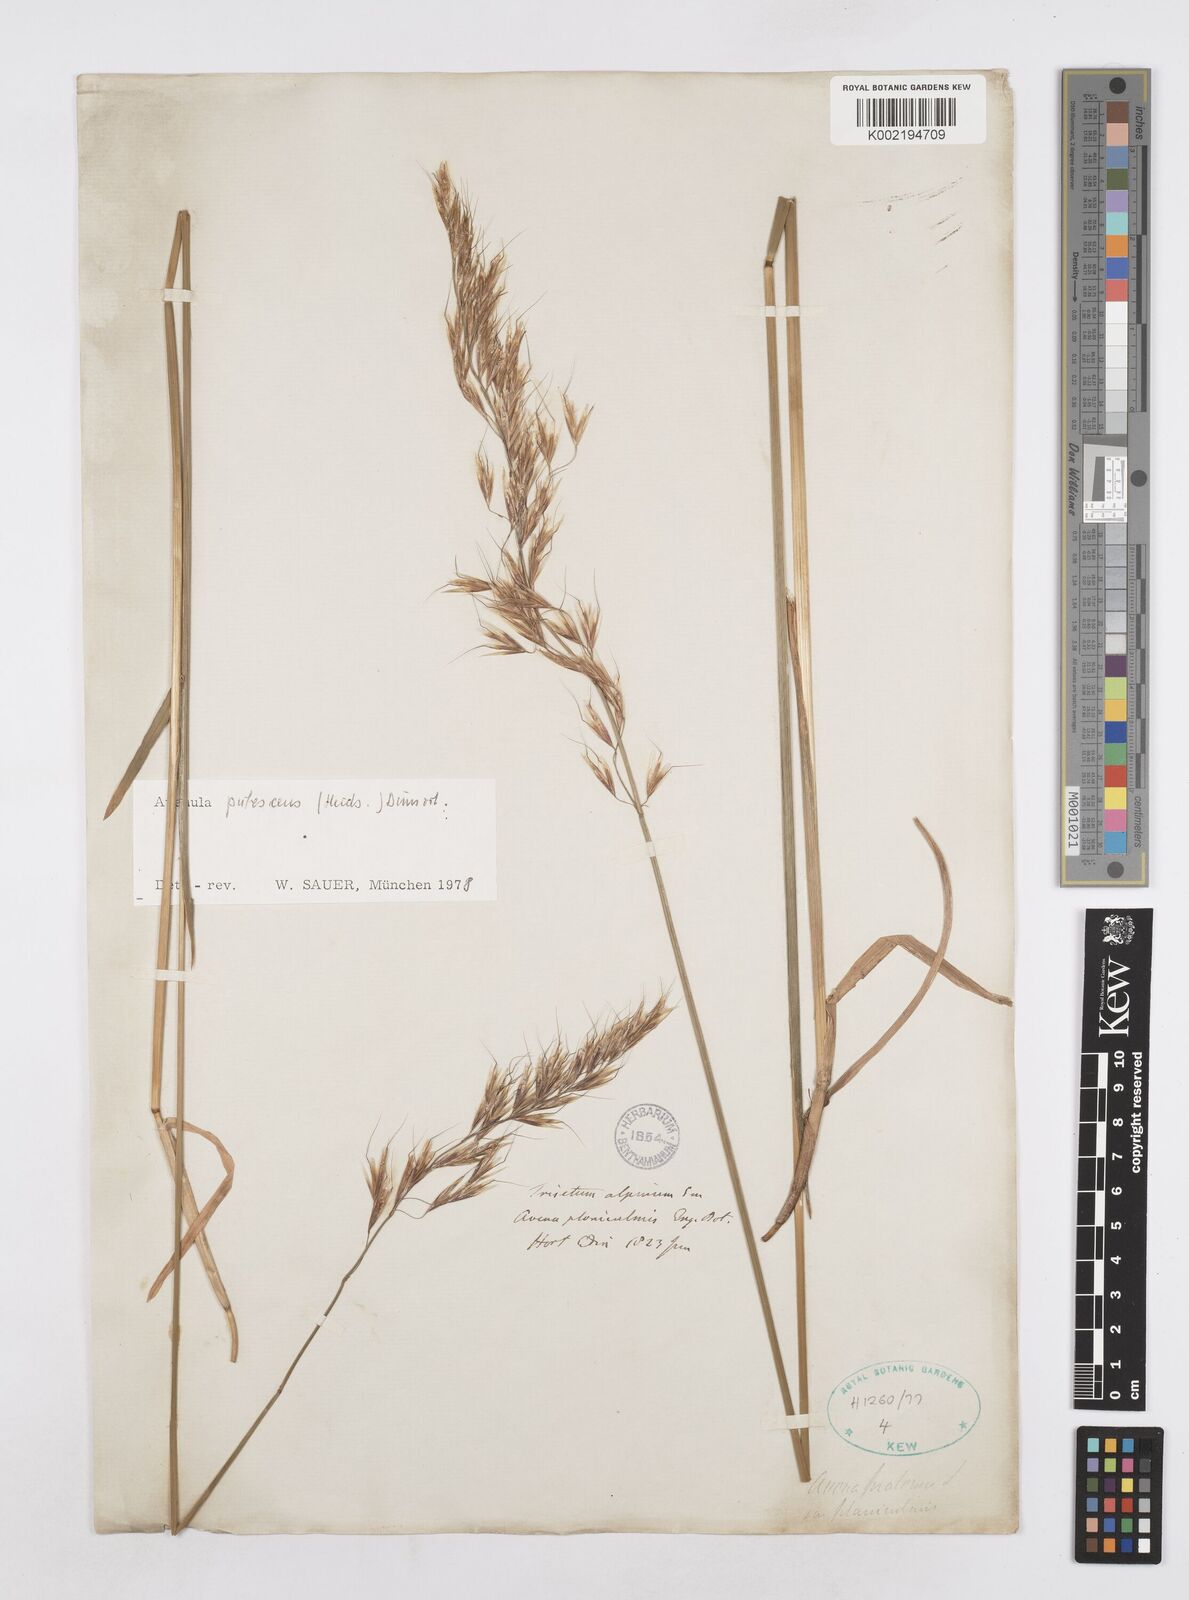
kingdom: Plantae
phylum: Tracheophyta
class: Liliopsida
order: Poales
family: Poaceae
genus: Avenula
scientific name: Avenula pubescens
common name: Downy alpine oatgrass
